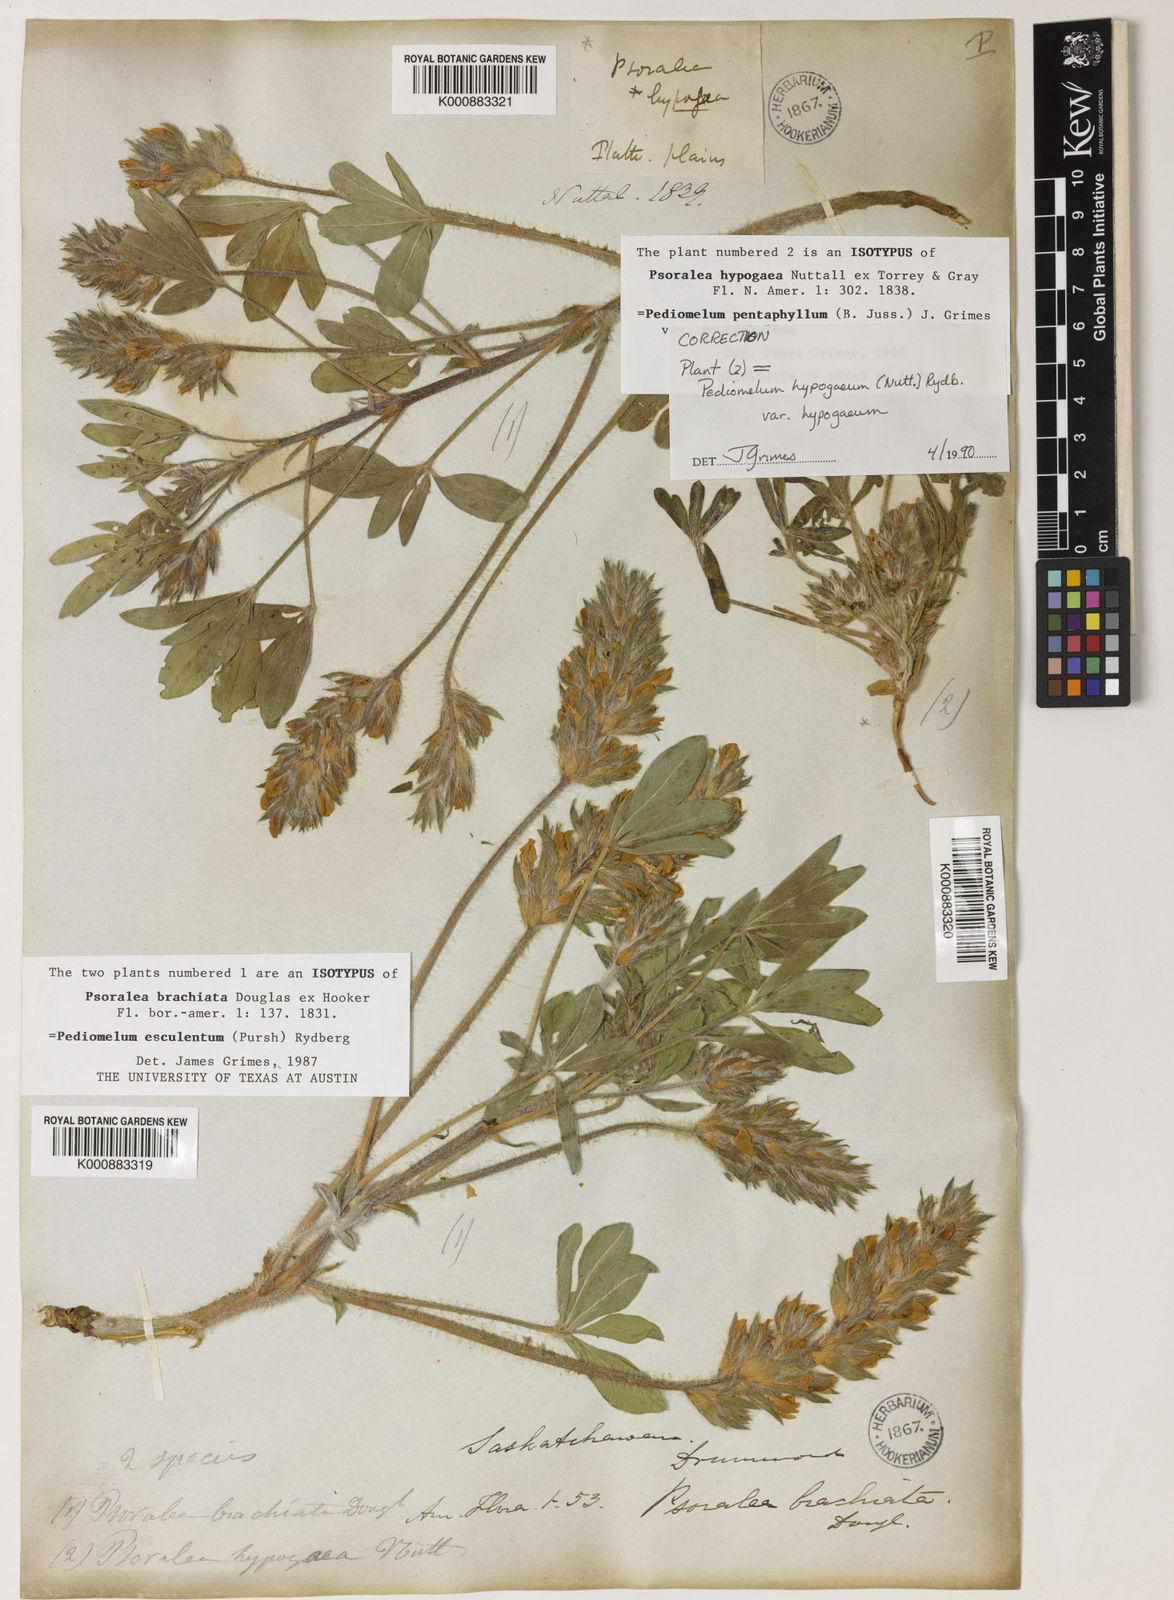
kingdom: Plantae
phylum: Tracheophyta
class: Magnoliopsida
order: Fabales
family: Fabaceae
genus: Pediomelum
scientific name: Pediomelum esculentum
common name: Indian-turnip
